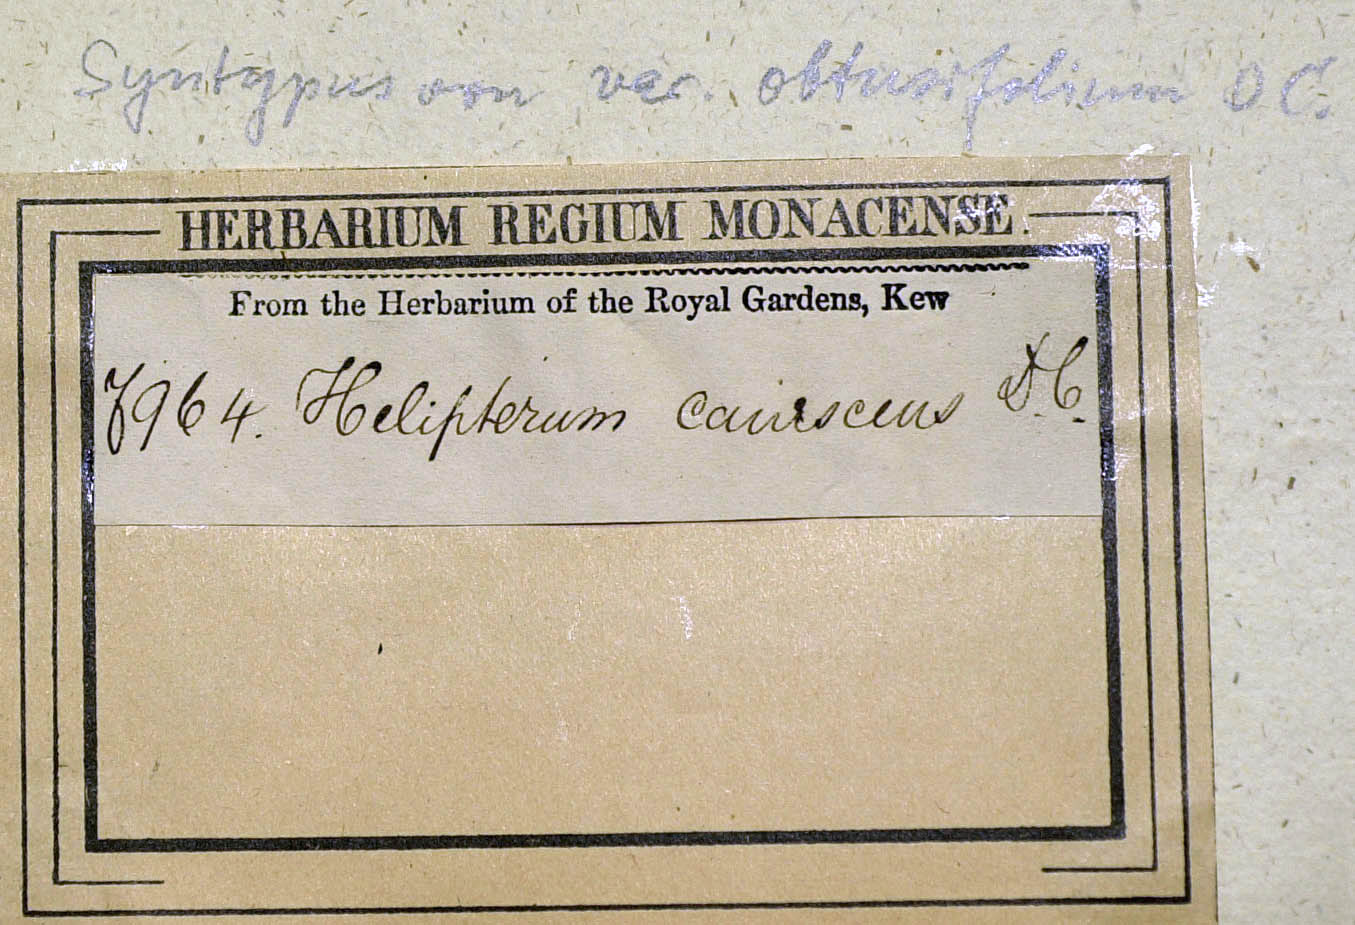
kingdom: Plantae
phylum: Tracheophyta
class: Magnoliopsida
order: Asterales
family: Asteraceae
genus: Syncarpha
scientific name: Syncarpha canescens
